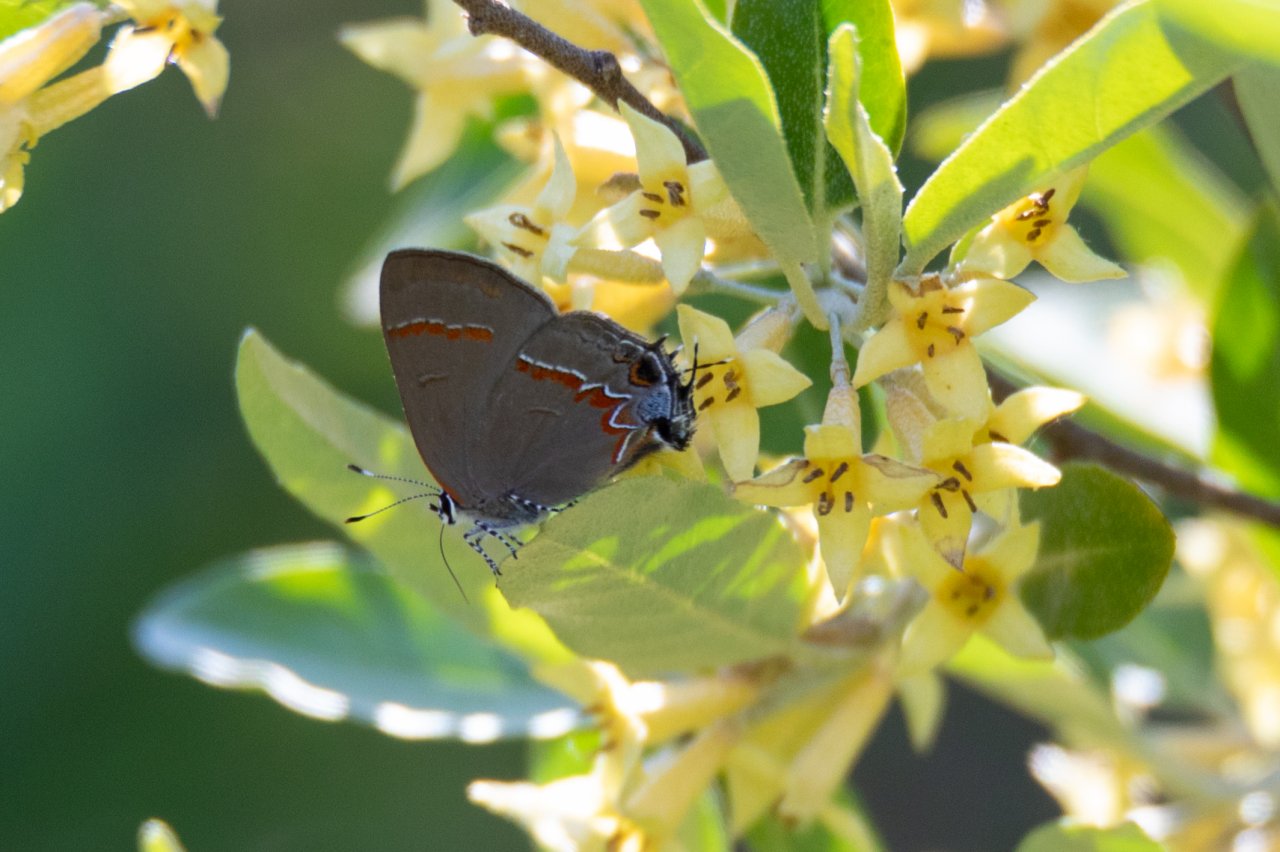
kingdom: Animalia
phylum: Arthropoda
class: Insecta
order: Lepidoptera
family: Lycaenidae
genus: Calycopis
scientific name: Calycopis cecrops
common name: Red-banded Hairstreak
